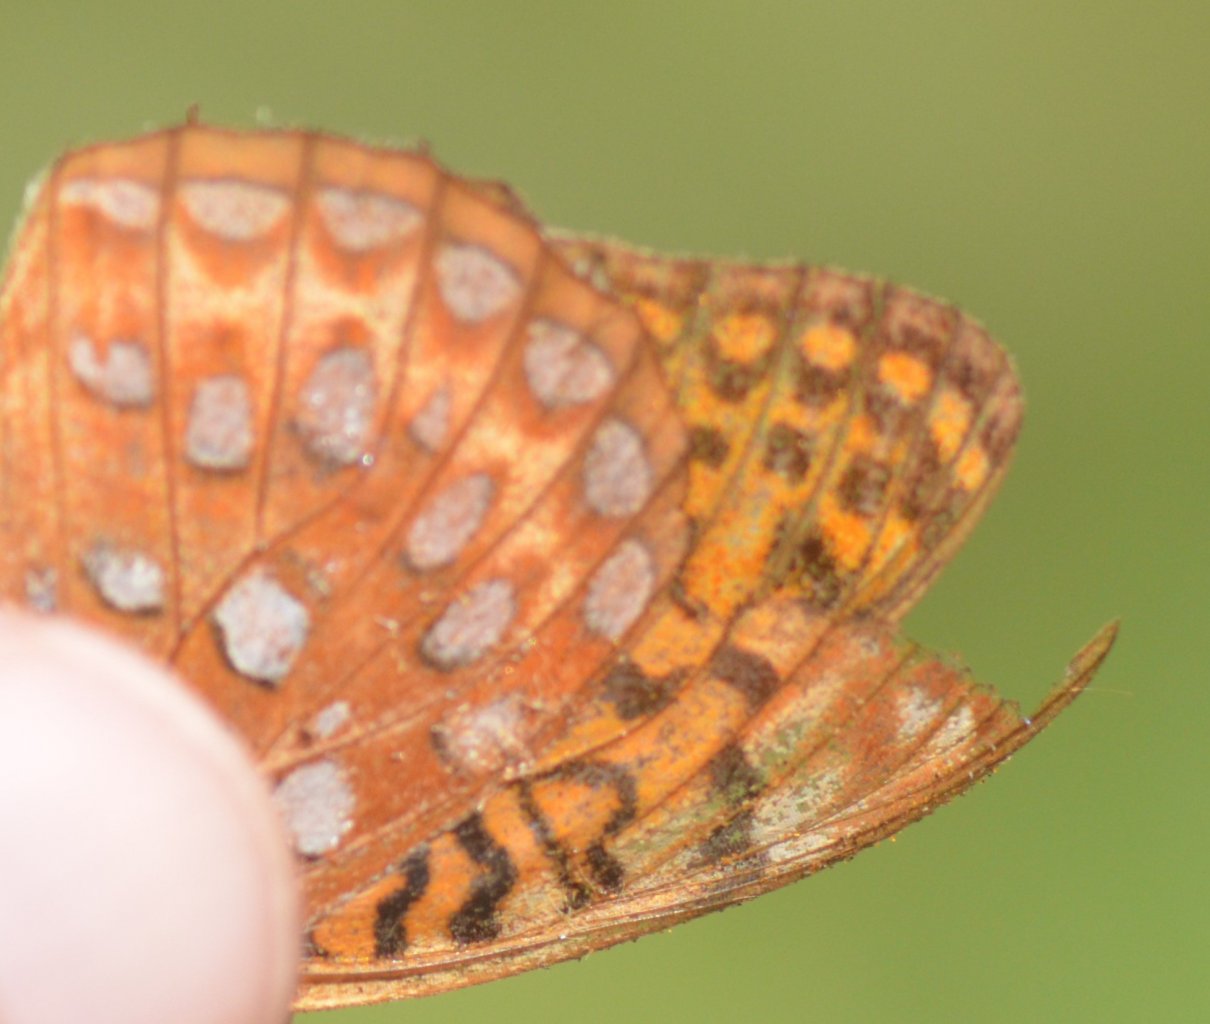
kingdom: Animalia
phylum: Arthropoda
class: Insecta
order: Lepidoptera
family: Nymphalidae
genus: Speyeria
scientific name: Speyeria aphrodite
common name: Aphrodite Fritillary
